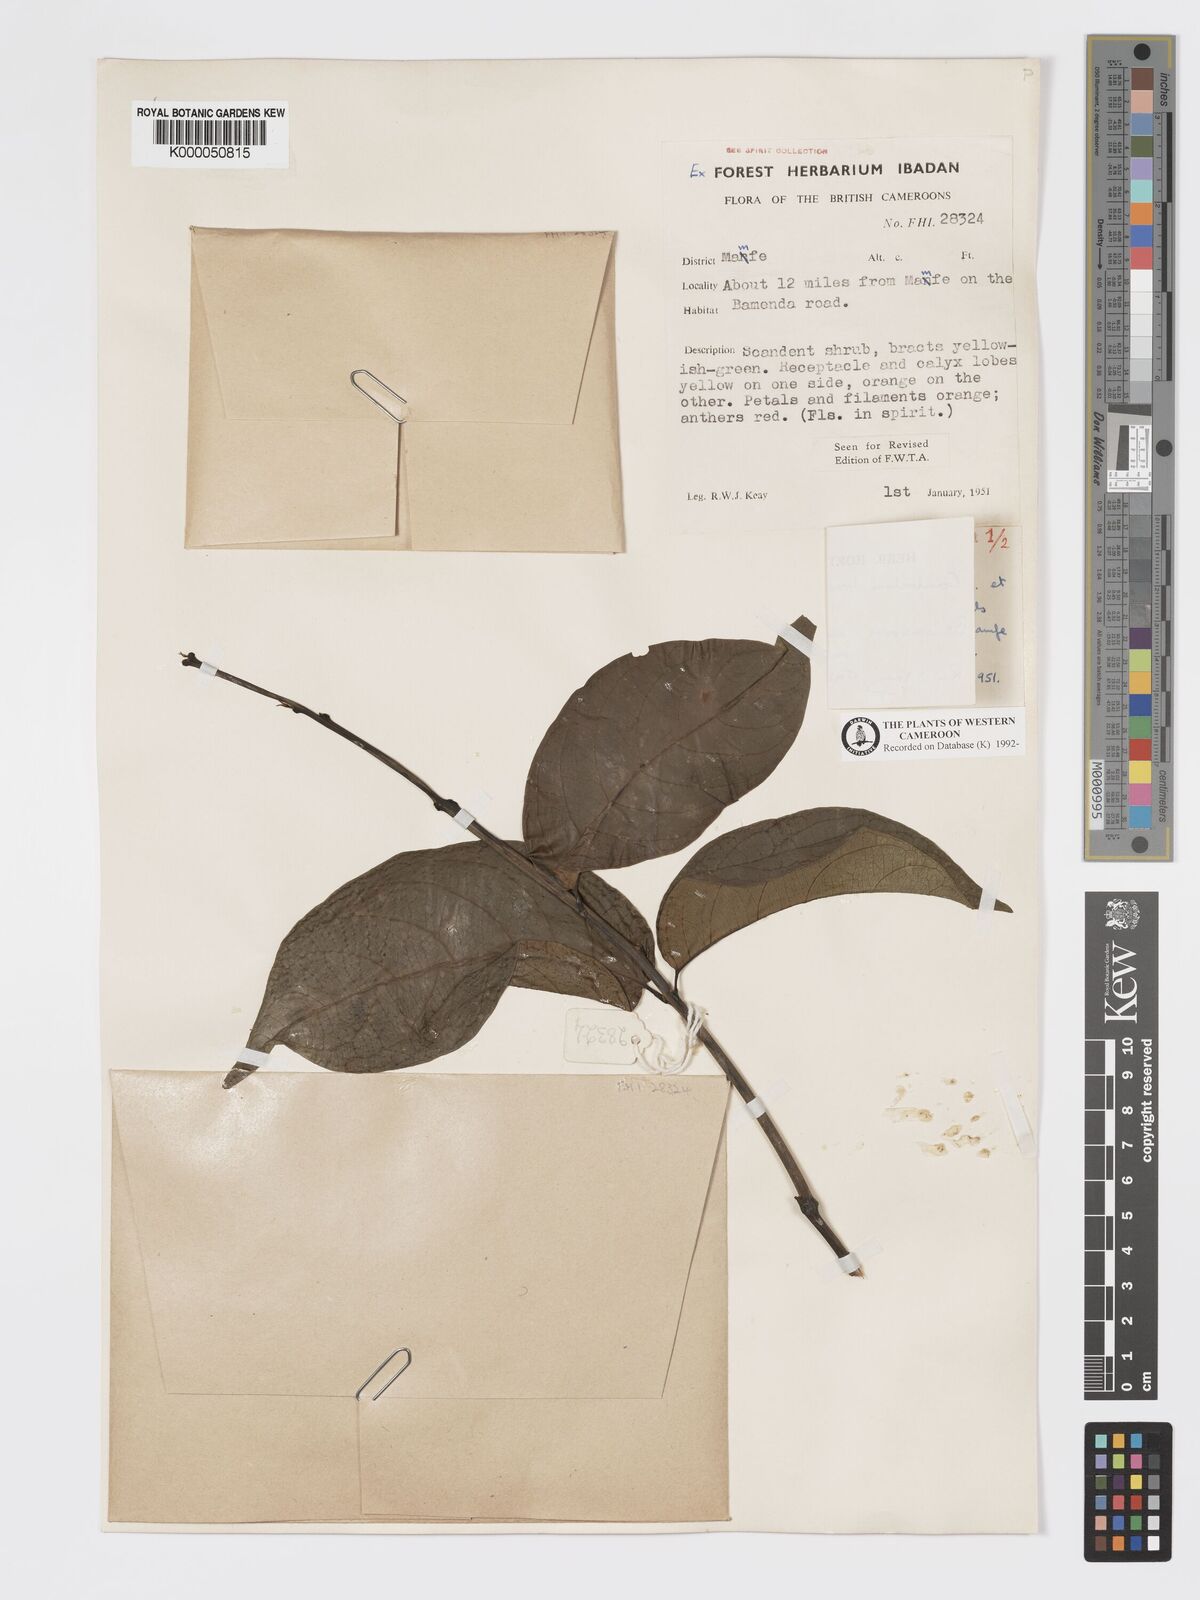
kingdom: Plantae
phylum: Tracheophyta
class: Magnoliopsida
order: Myrtales
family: Combretaceae
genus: Combretum
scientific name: Combretum bracteatum
